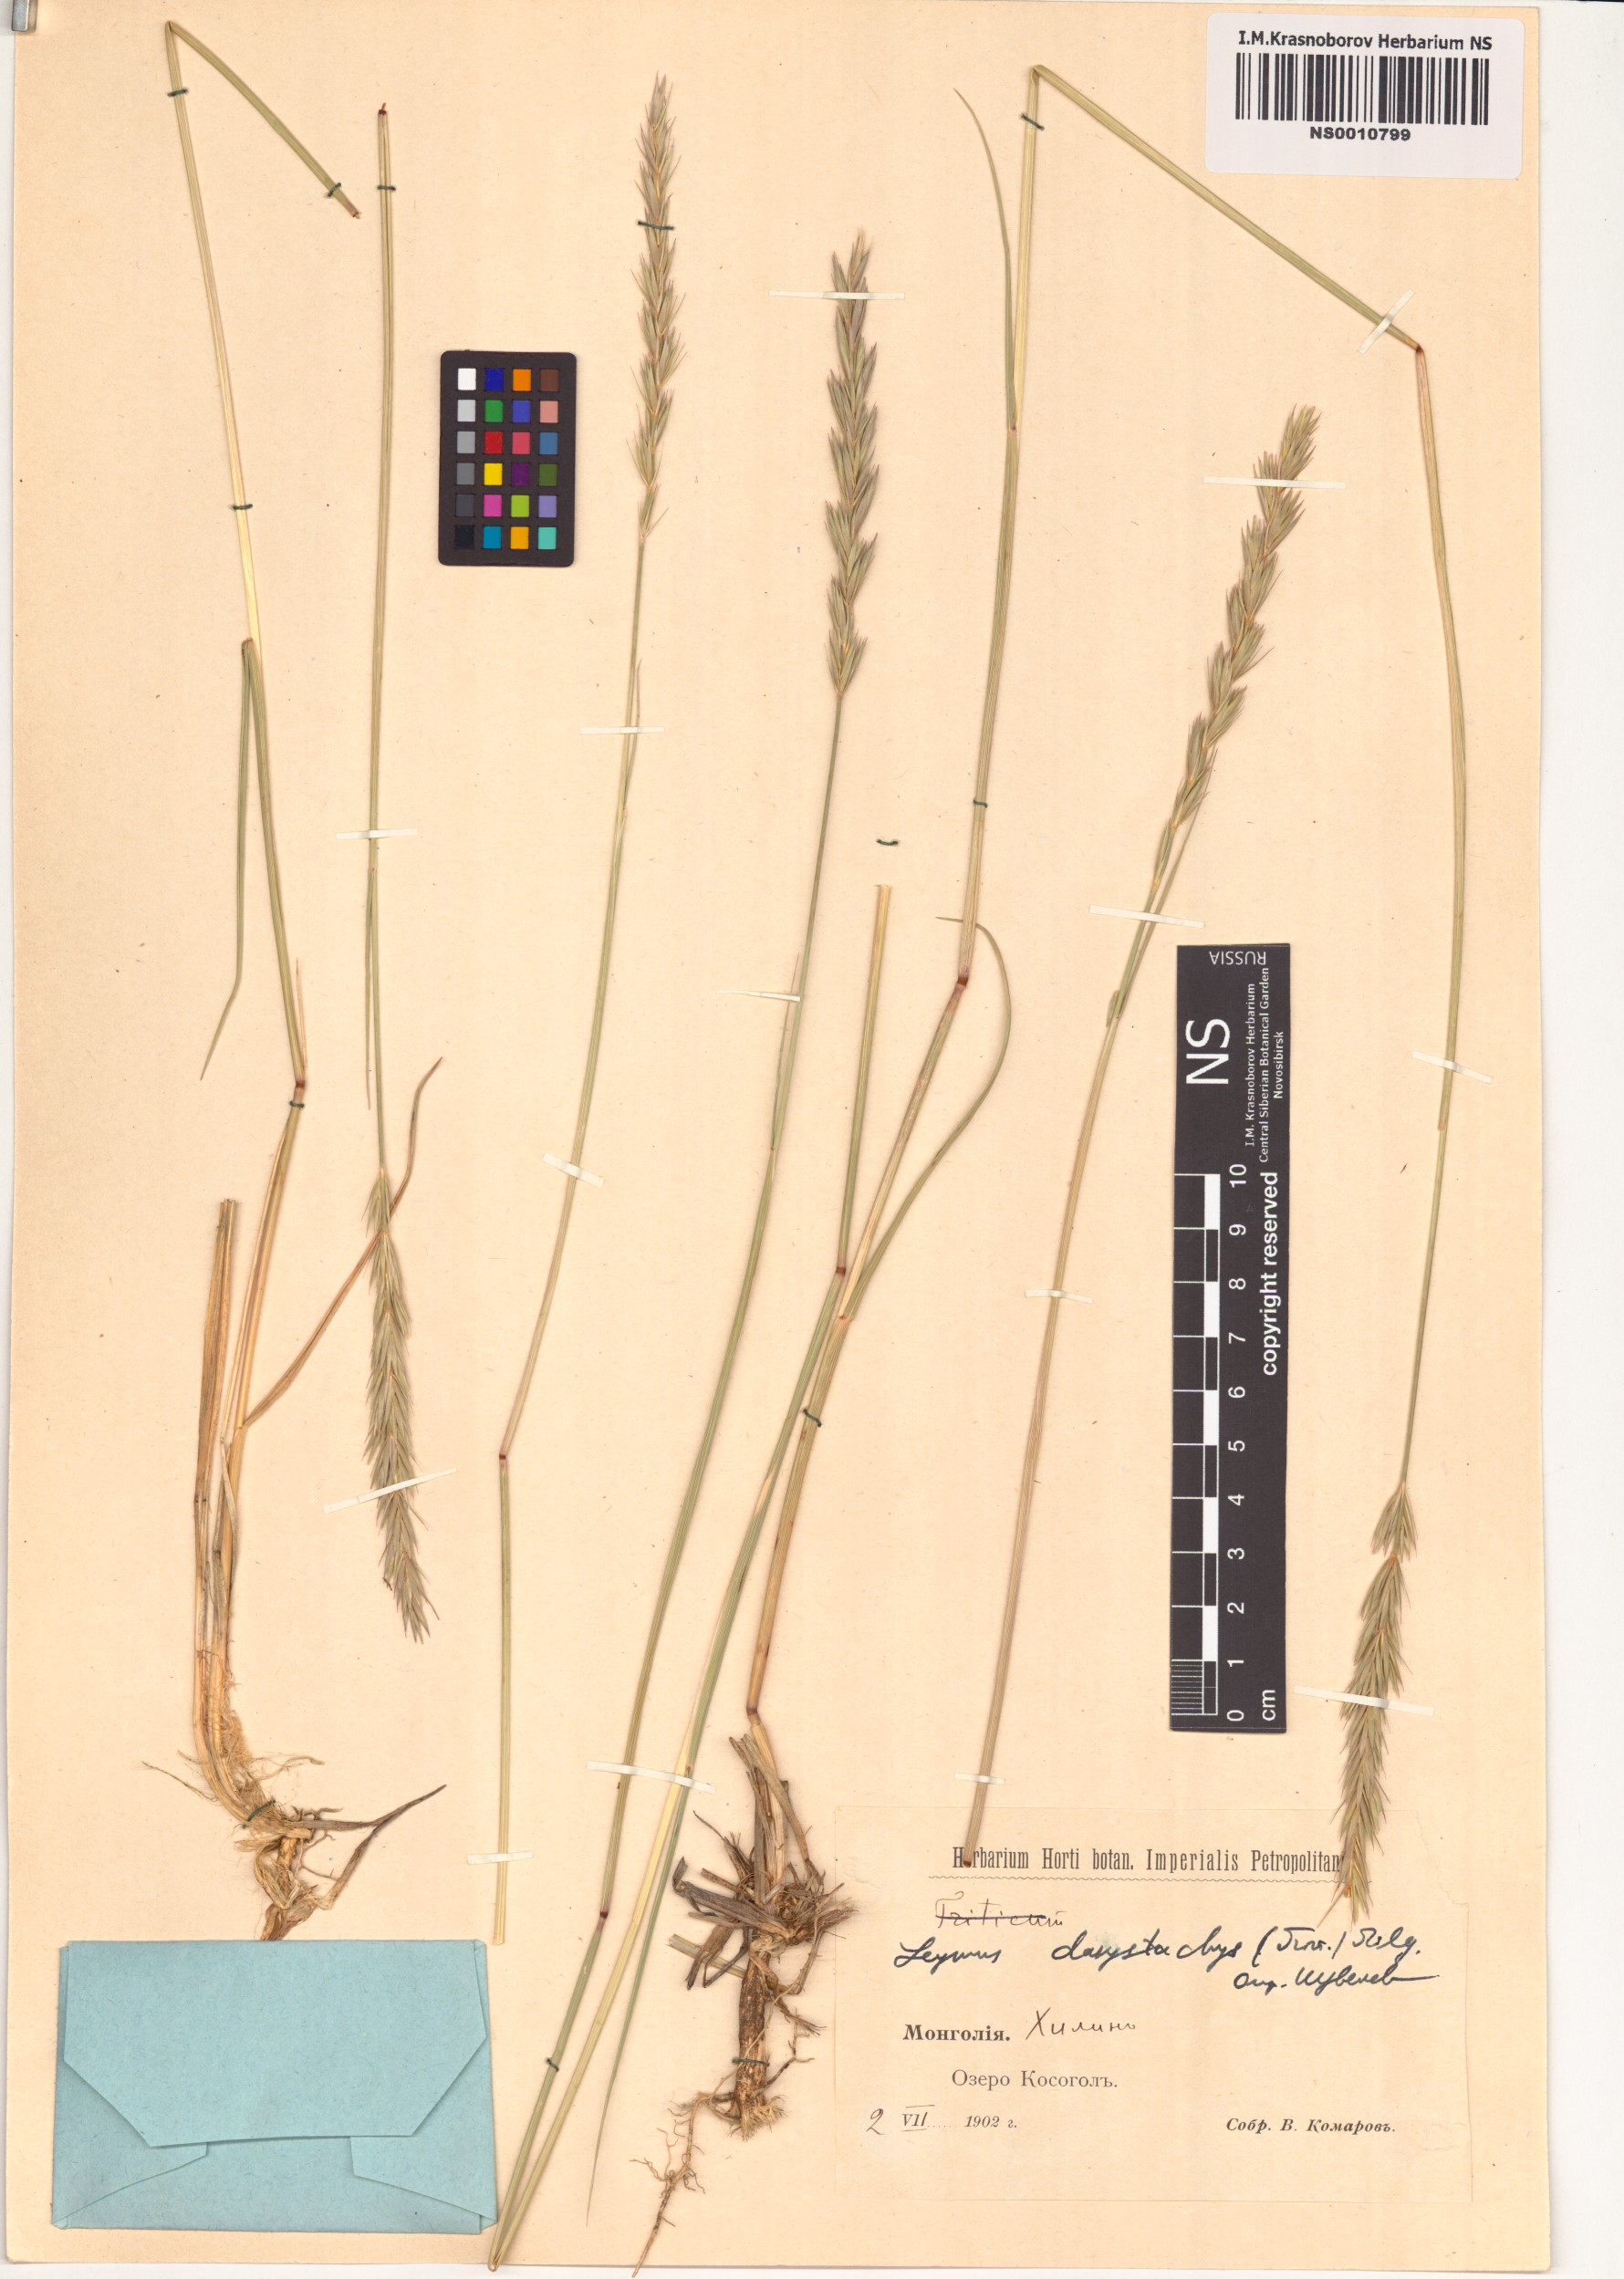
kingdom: Plantae
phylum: Tracheophyta
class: Liliopsida
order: Poales
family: Poaceae
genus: Leymus
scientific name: Leymus secalinus
